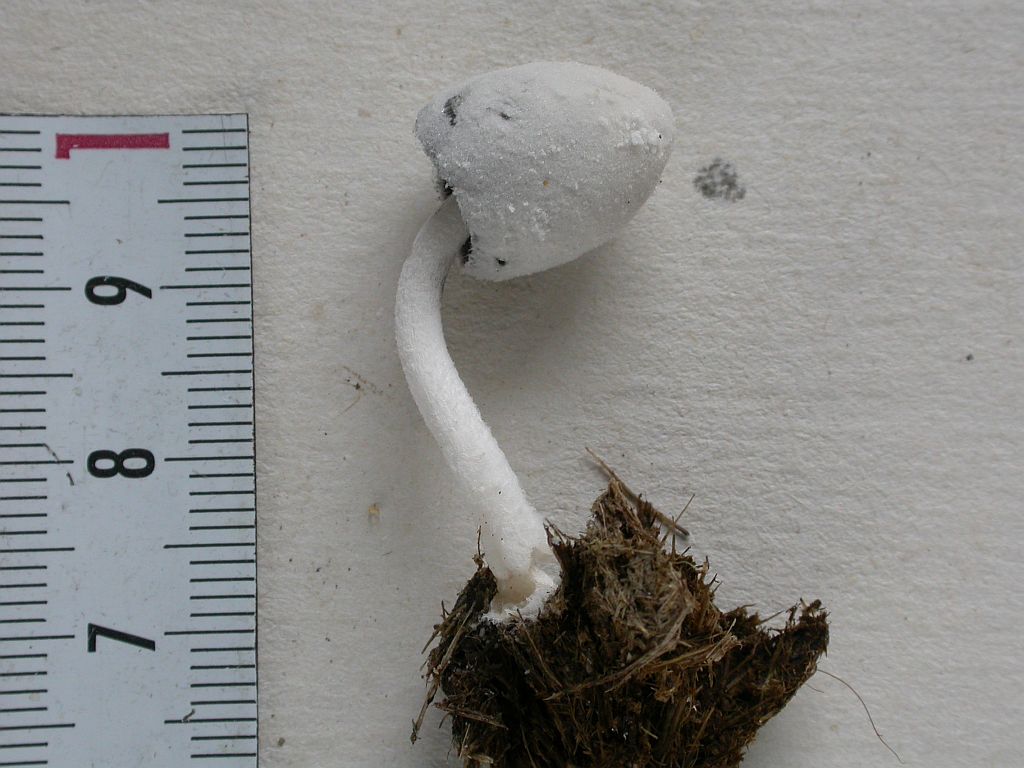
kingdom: Fungi
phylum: Basidiomycota
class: Agaricomycetes
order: Agaricales
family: Psathyrellaceae
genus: Coprinopsis
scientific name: Coprinopsis nivea
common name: snehvid blækhat
